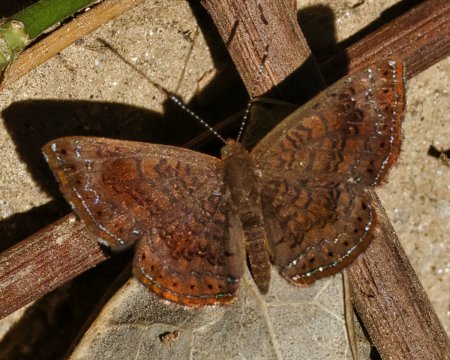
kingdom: Animalia
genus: Calephelis
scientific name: Calephelis
